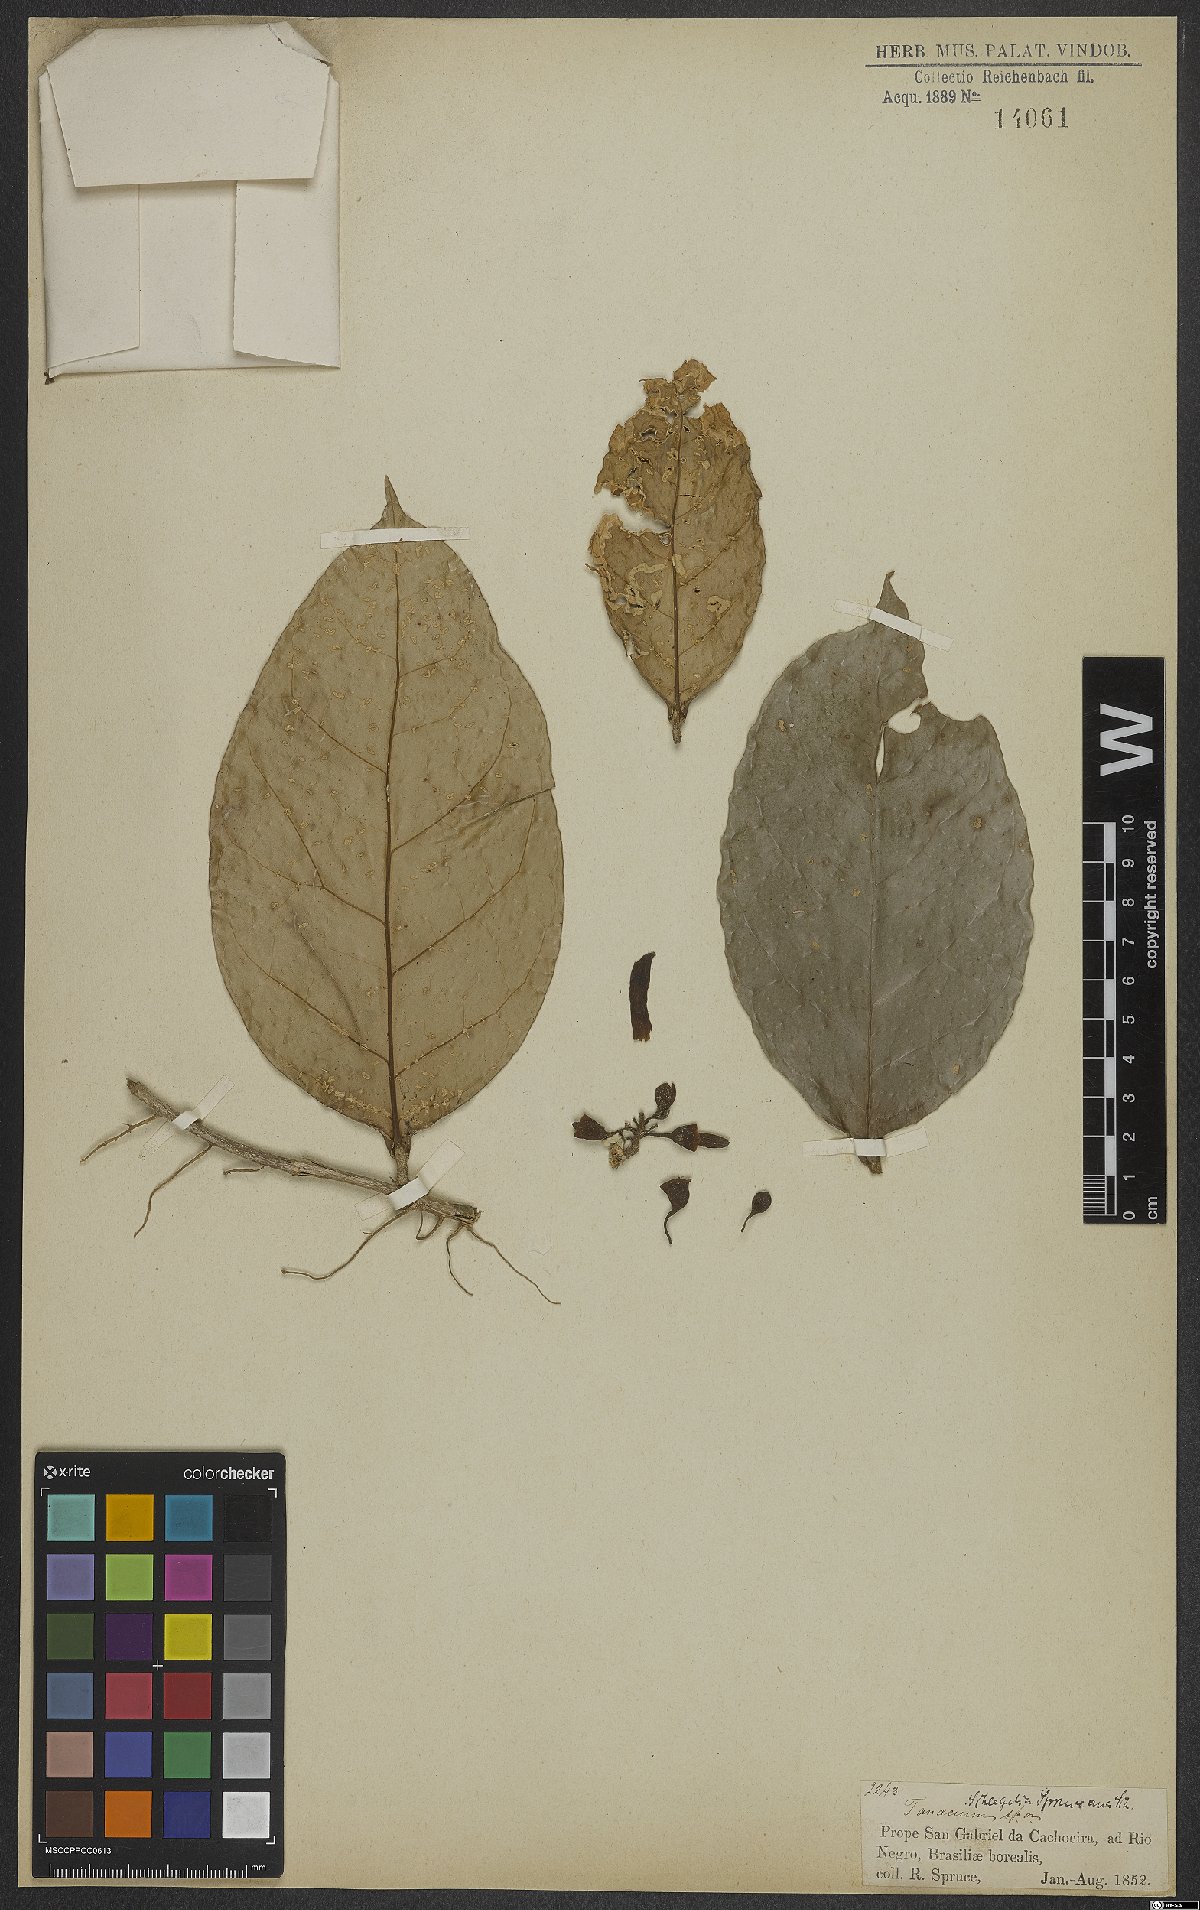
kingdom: Plantae
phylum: Tracheophyta
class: Magnoliopsida
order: Lamiales
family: Schlegeliaceae
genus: Schlegelia
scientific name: Schlegelia spruceana
